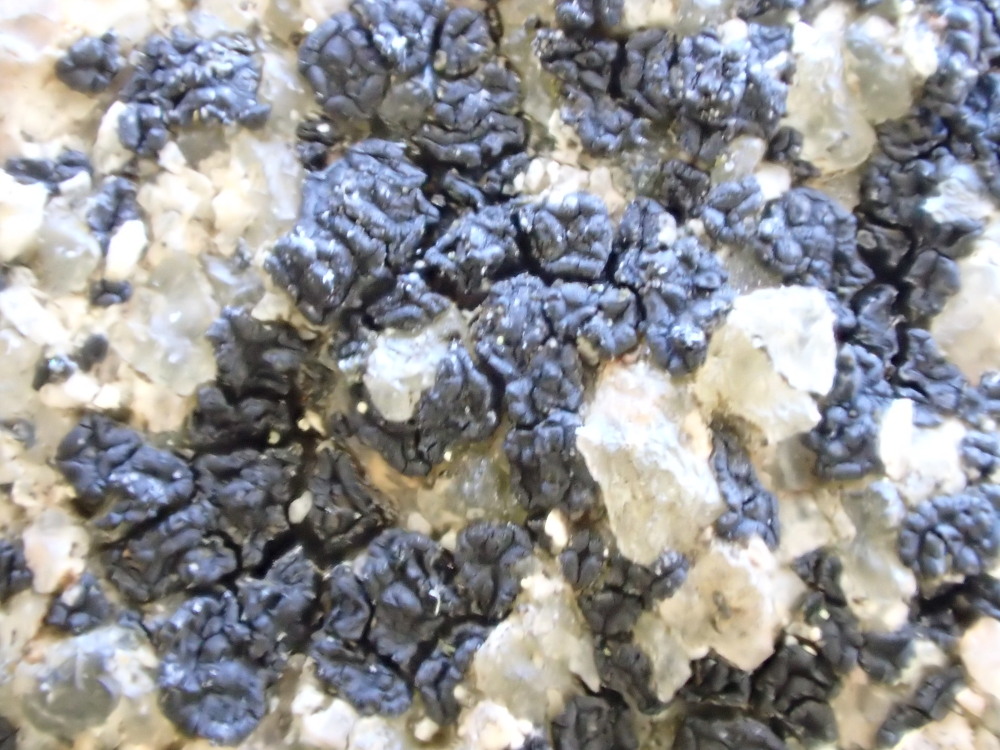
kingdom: Fungi
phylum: Ascomycota
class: Lecanoromycetes
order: Acarosporales
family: Acarosporaceae
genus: Acarospora
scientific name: Acarospora privigna
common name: sort foldekantlav
